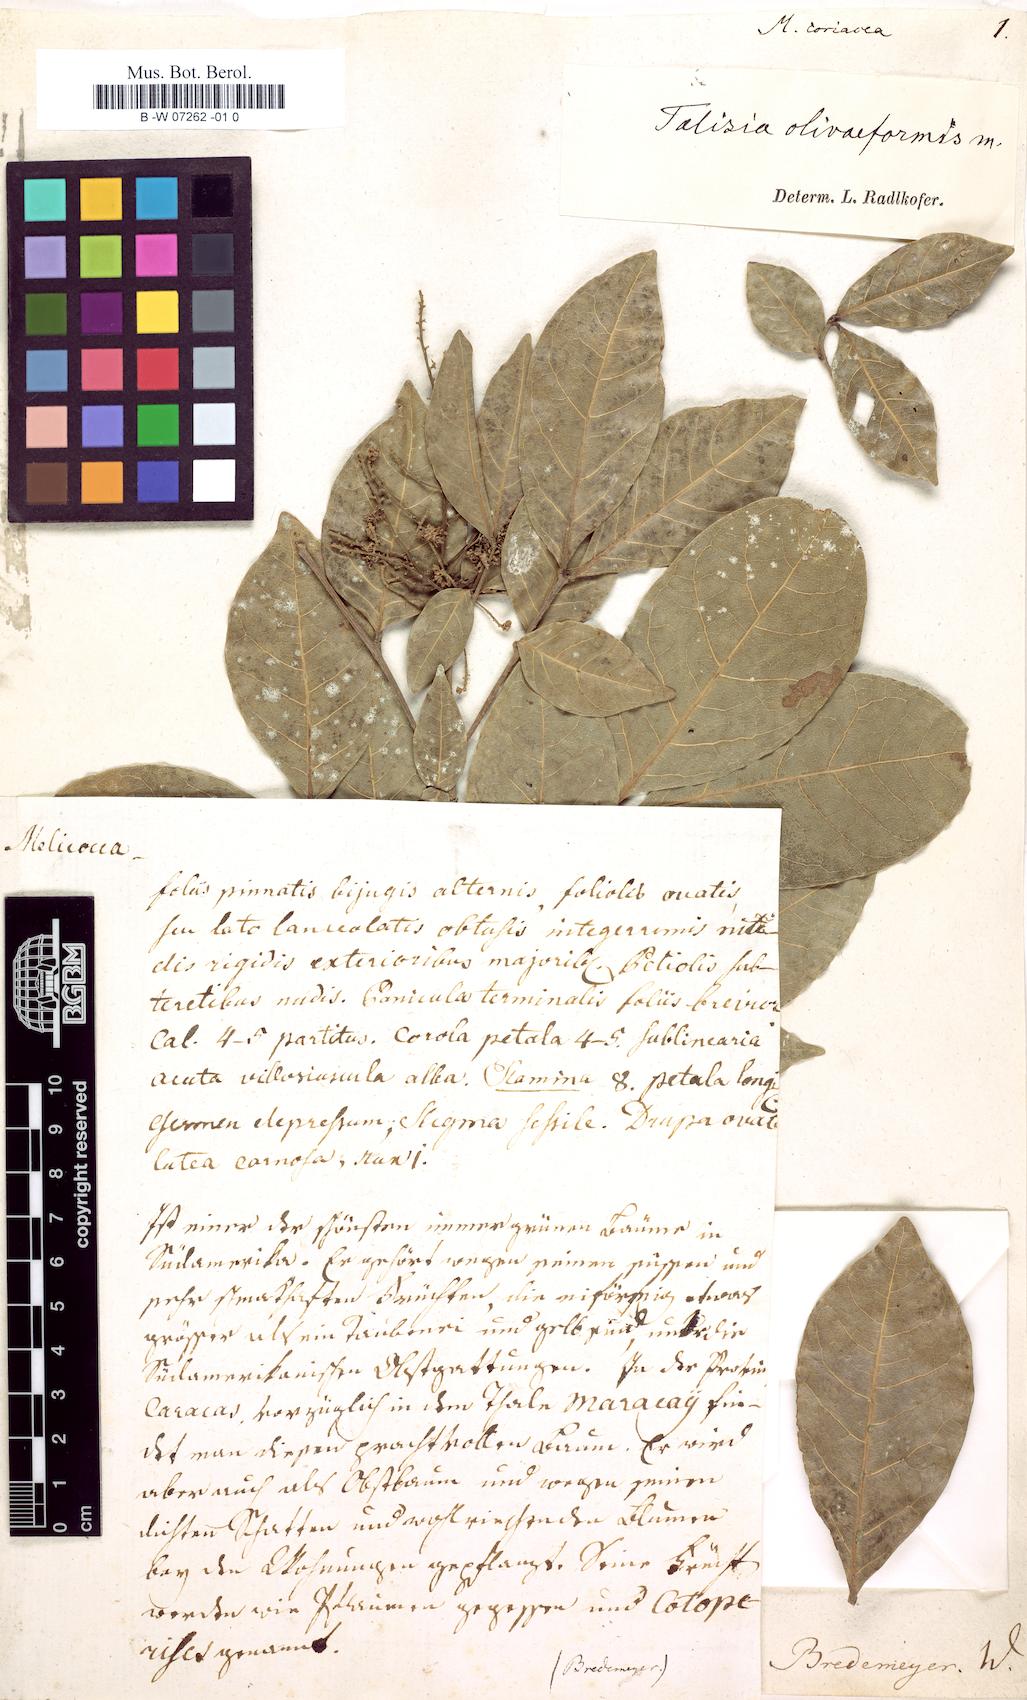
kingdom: Plantae
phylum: Tracheophyta
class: Magnoliopsida
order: Sapindales
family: Sapindaceae
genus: Melicoccus
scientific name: Melicoccus
